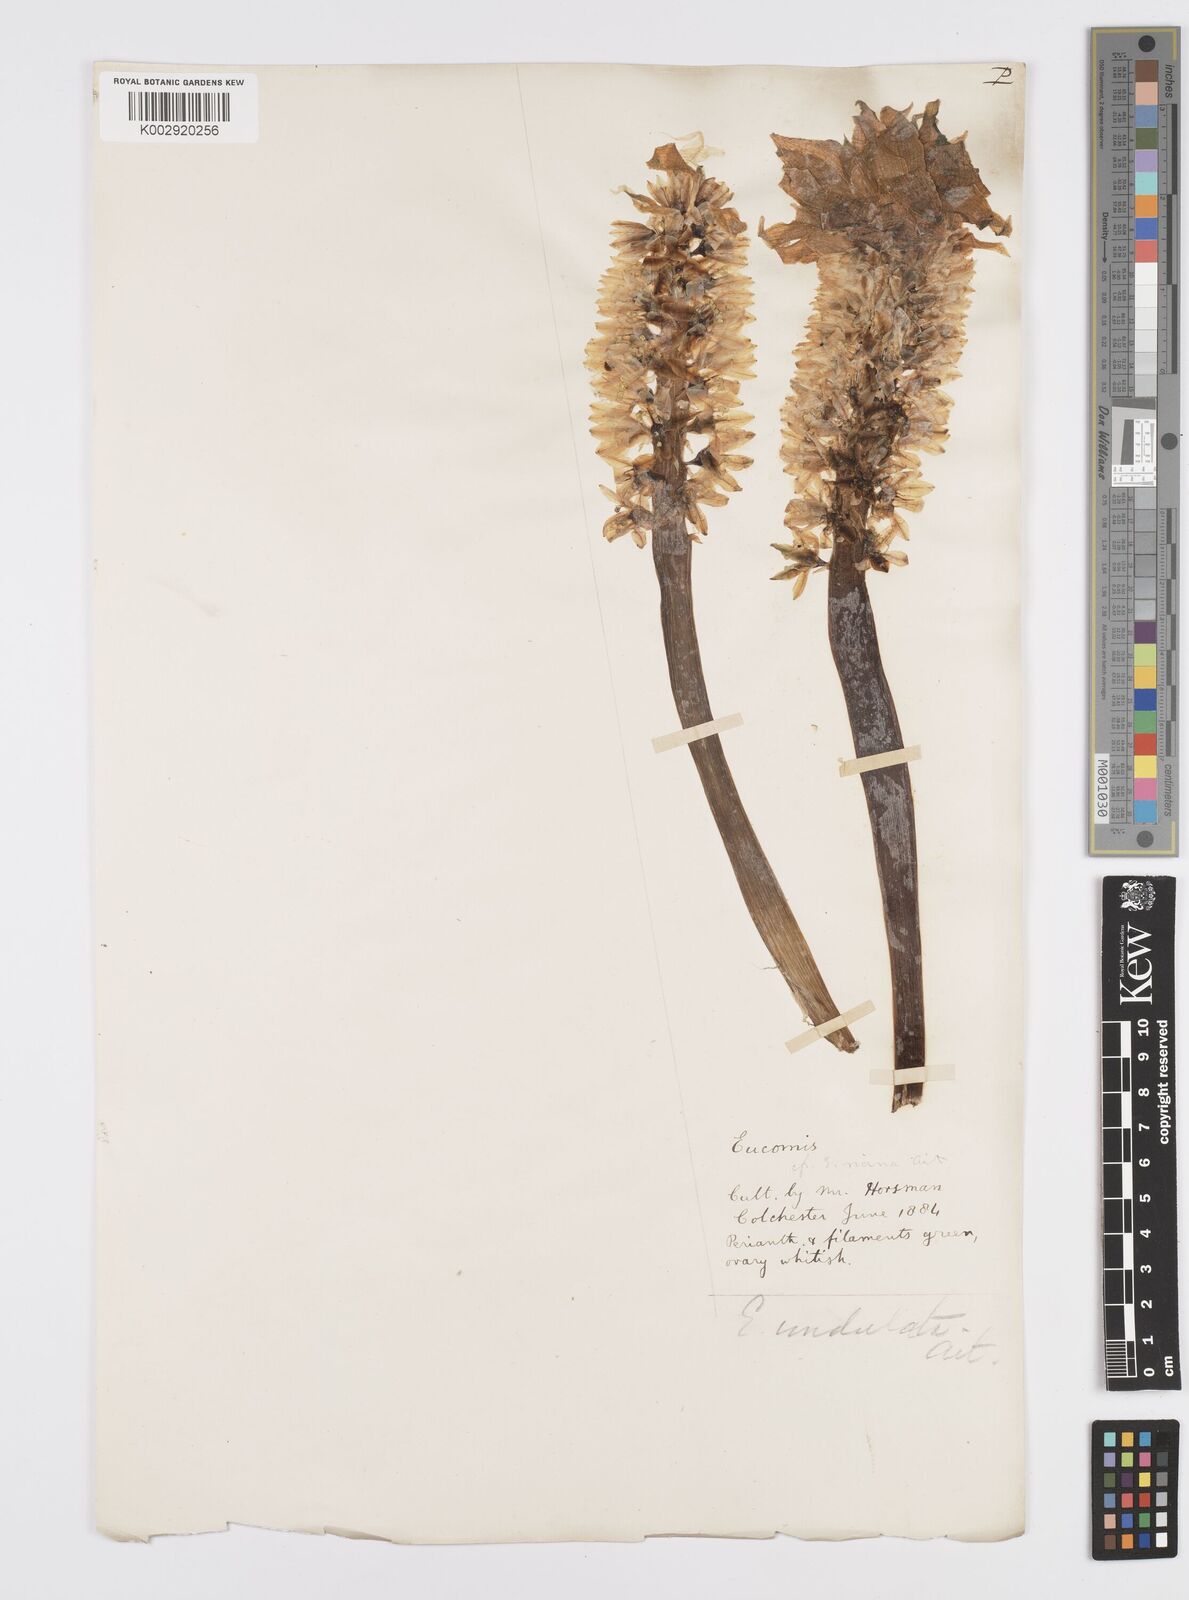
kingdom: Plantae
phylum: Tracheophyta
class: Liliopsida
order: Asparagales
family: Asparagaceae
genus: Eucomis
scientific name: Eucomis autumnalis
